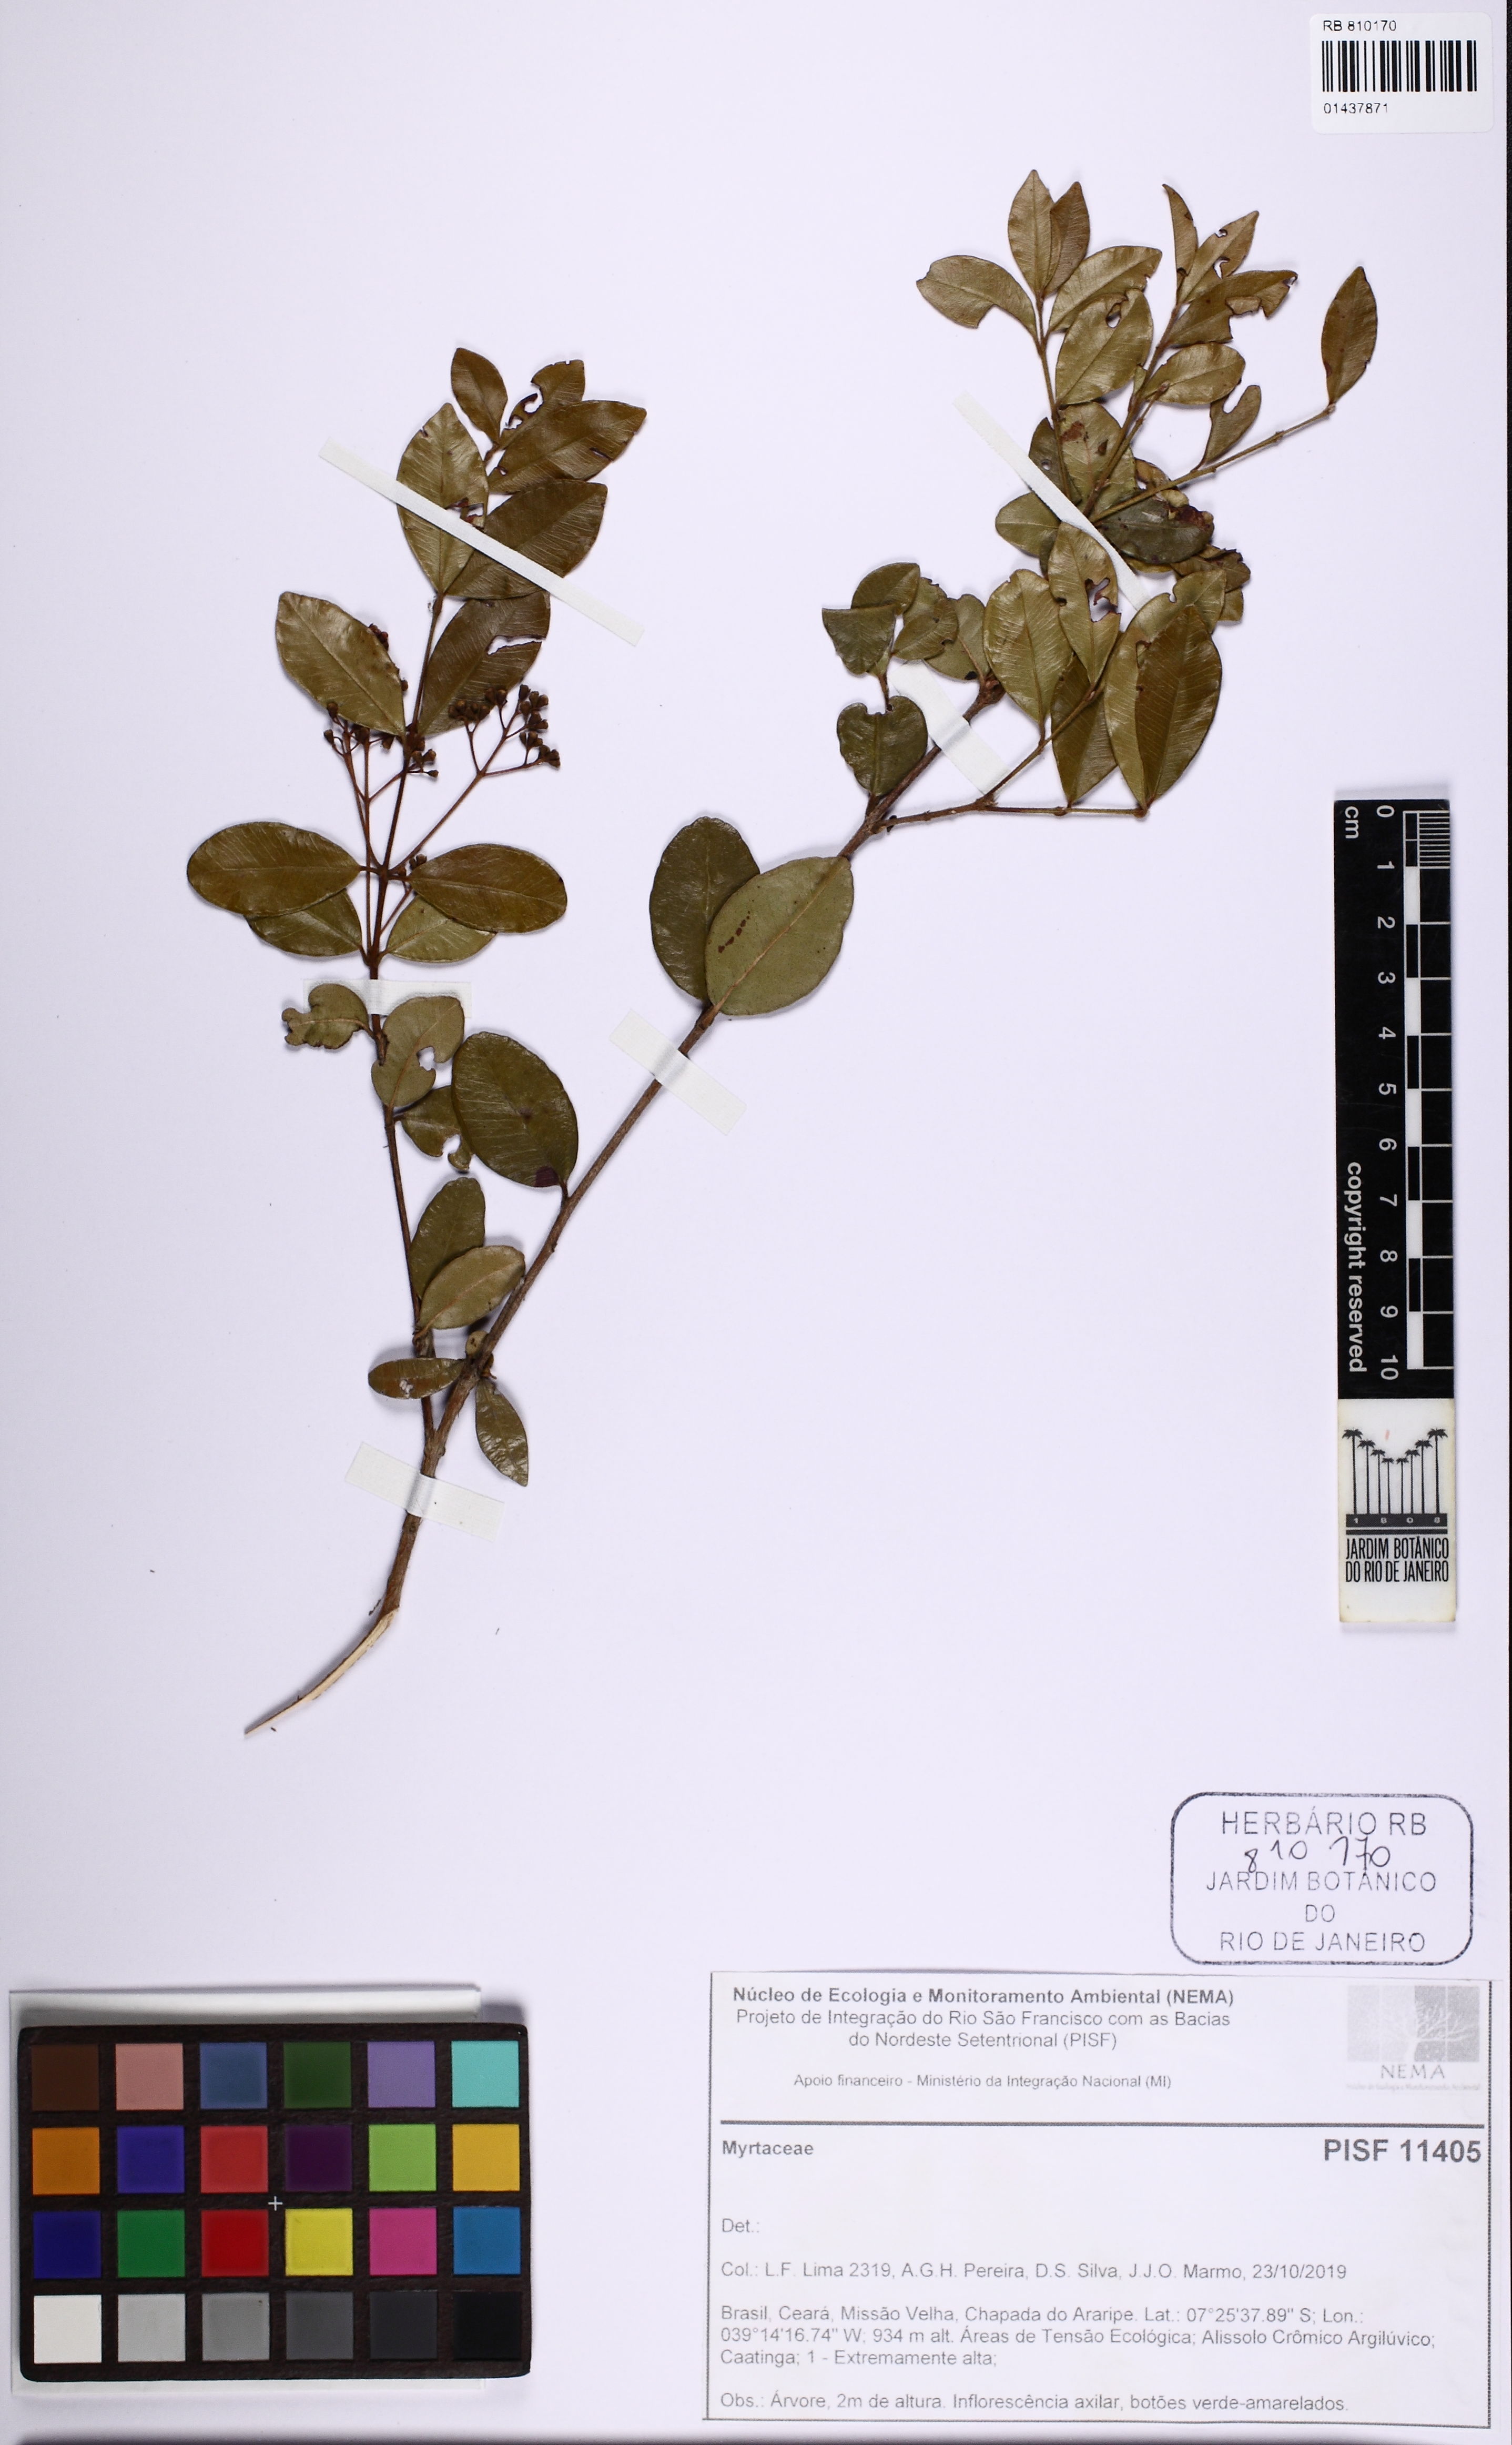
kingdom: Plantae
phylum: Tracheophyta
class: Magnoliopsida
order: Myrtales
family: Myrtaceae
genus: Myrcia
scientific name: Myrcia guianensis
